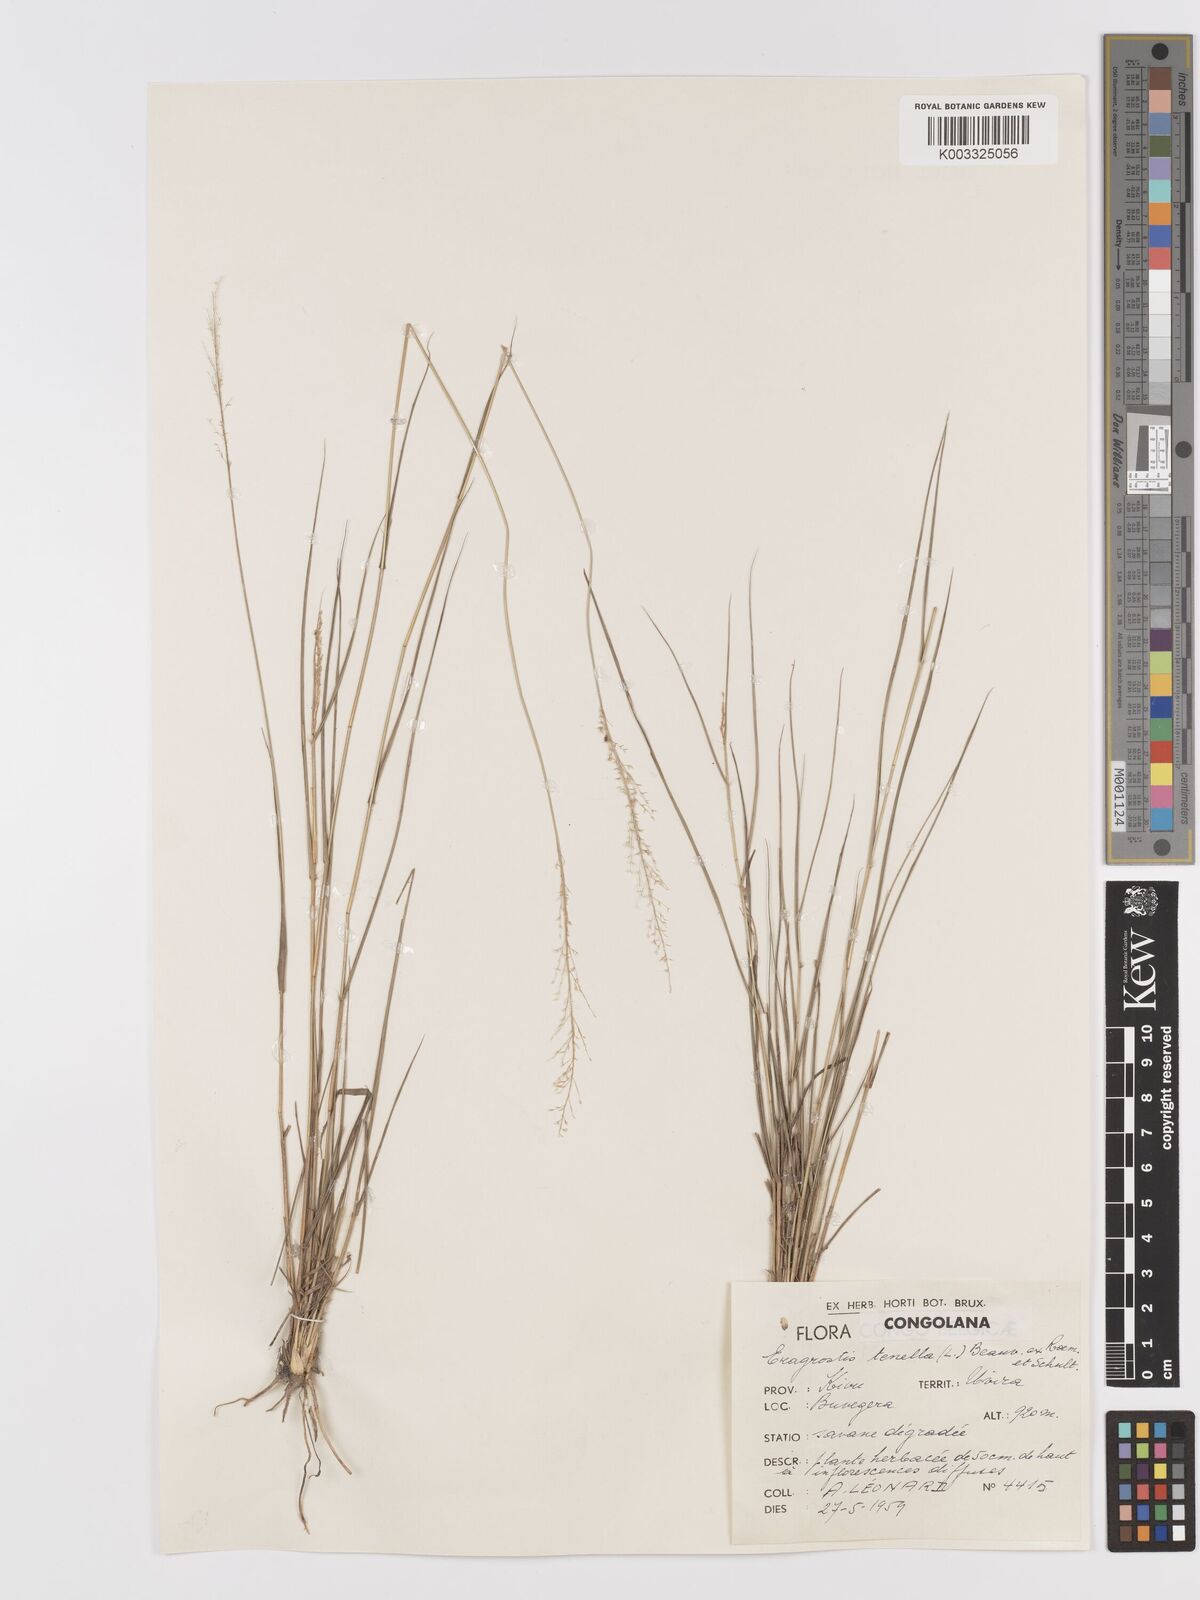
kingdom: Plantae
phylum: Tracheophyta
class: Liliopsida
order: Poales
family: Poaceae
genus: Eragrostis
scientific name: Eragrostis caespitosa
